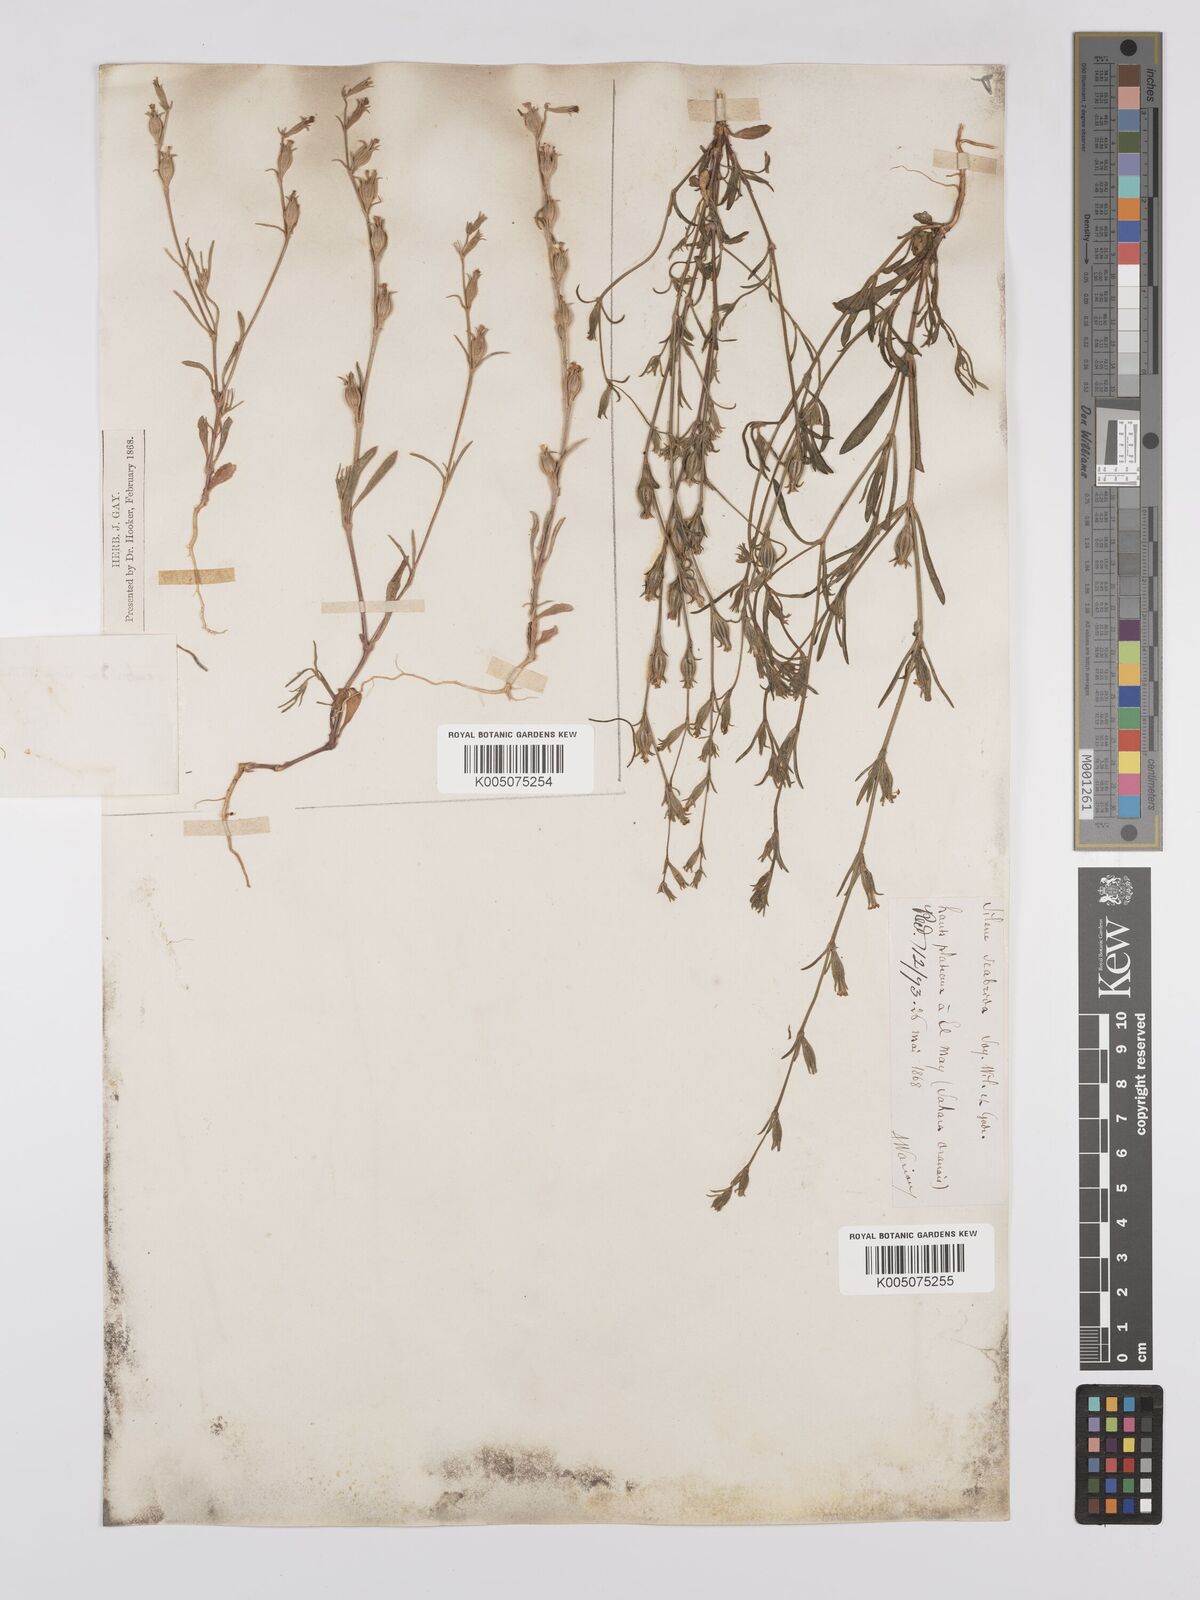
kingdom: Plantae
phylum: Tracheophyta
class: Magnoliopsida
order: Caryophyllales
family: Caryophyllaceae
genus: Silene
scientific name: Silene scabrida
